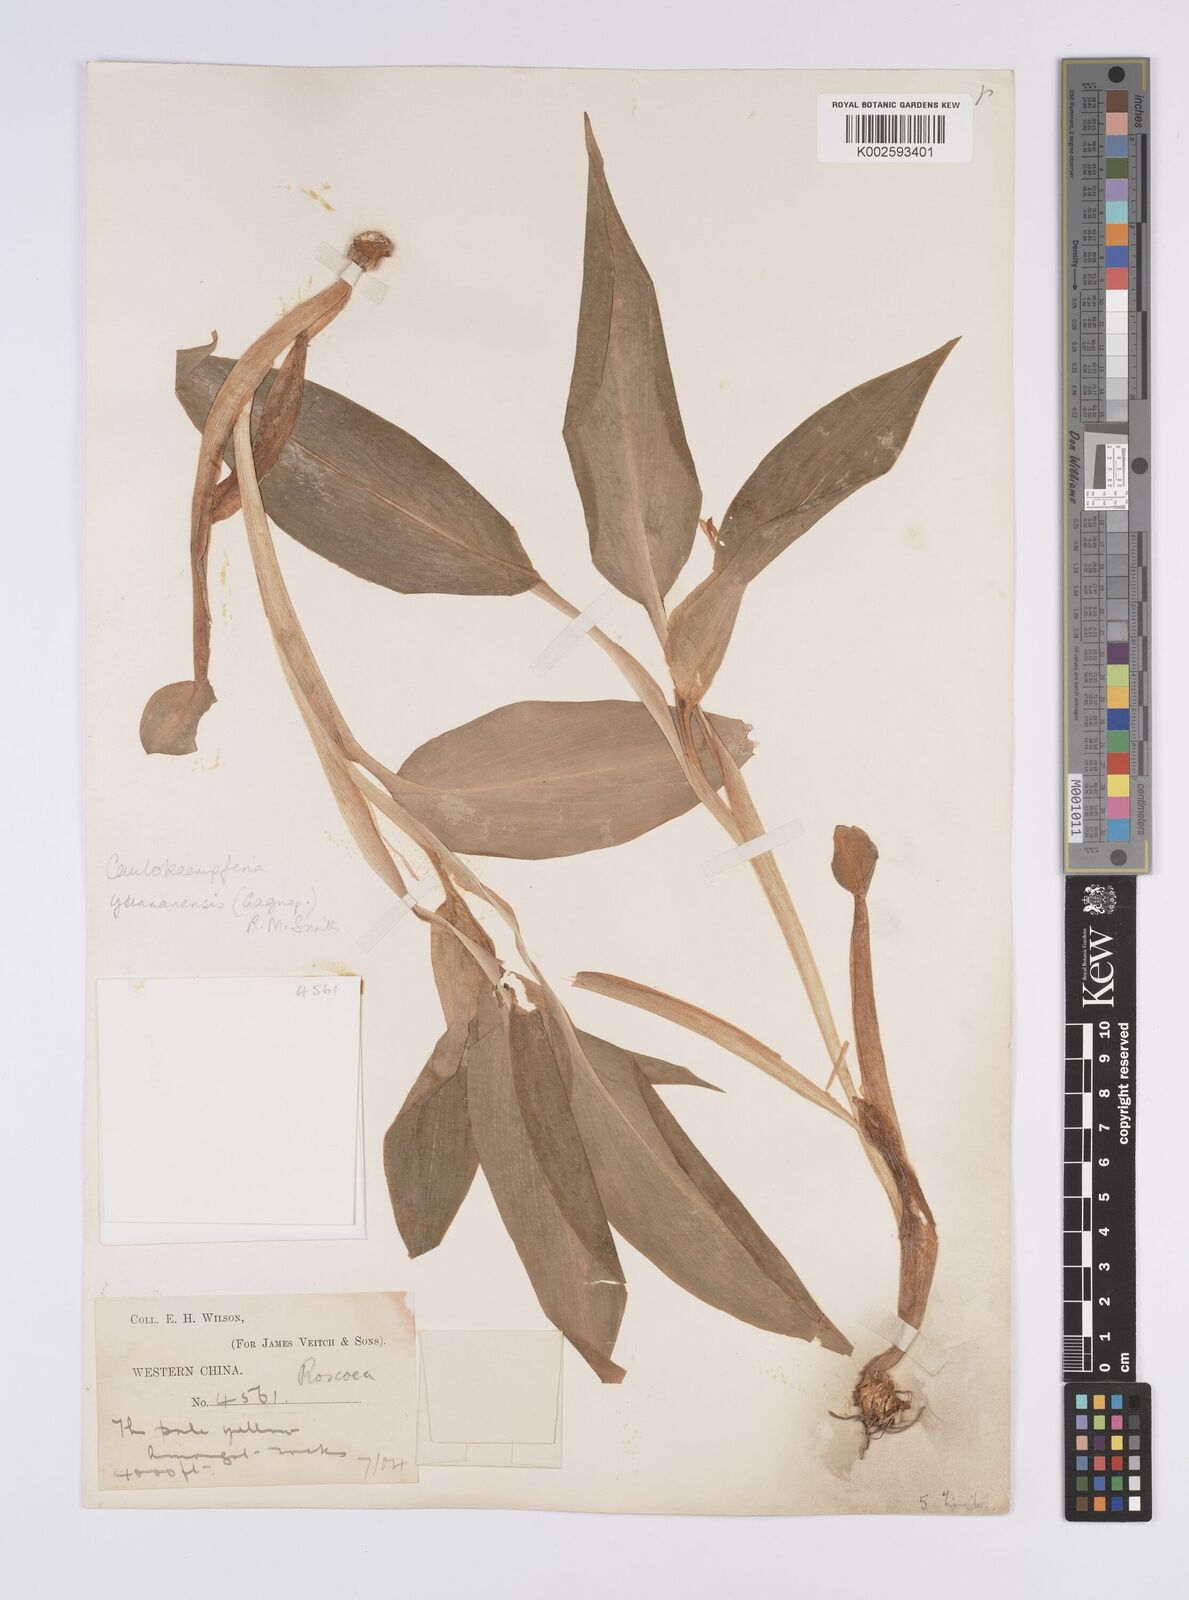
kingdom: Plantae
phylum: Tracheophyta
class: Liliopsida
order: Zingiberales
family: Zingiberaceae
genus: Pyrgophyllum
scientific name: Pyrgophyllum yunnanense
